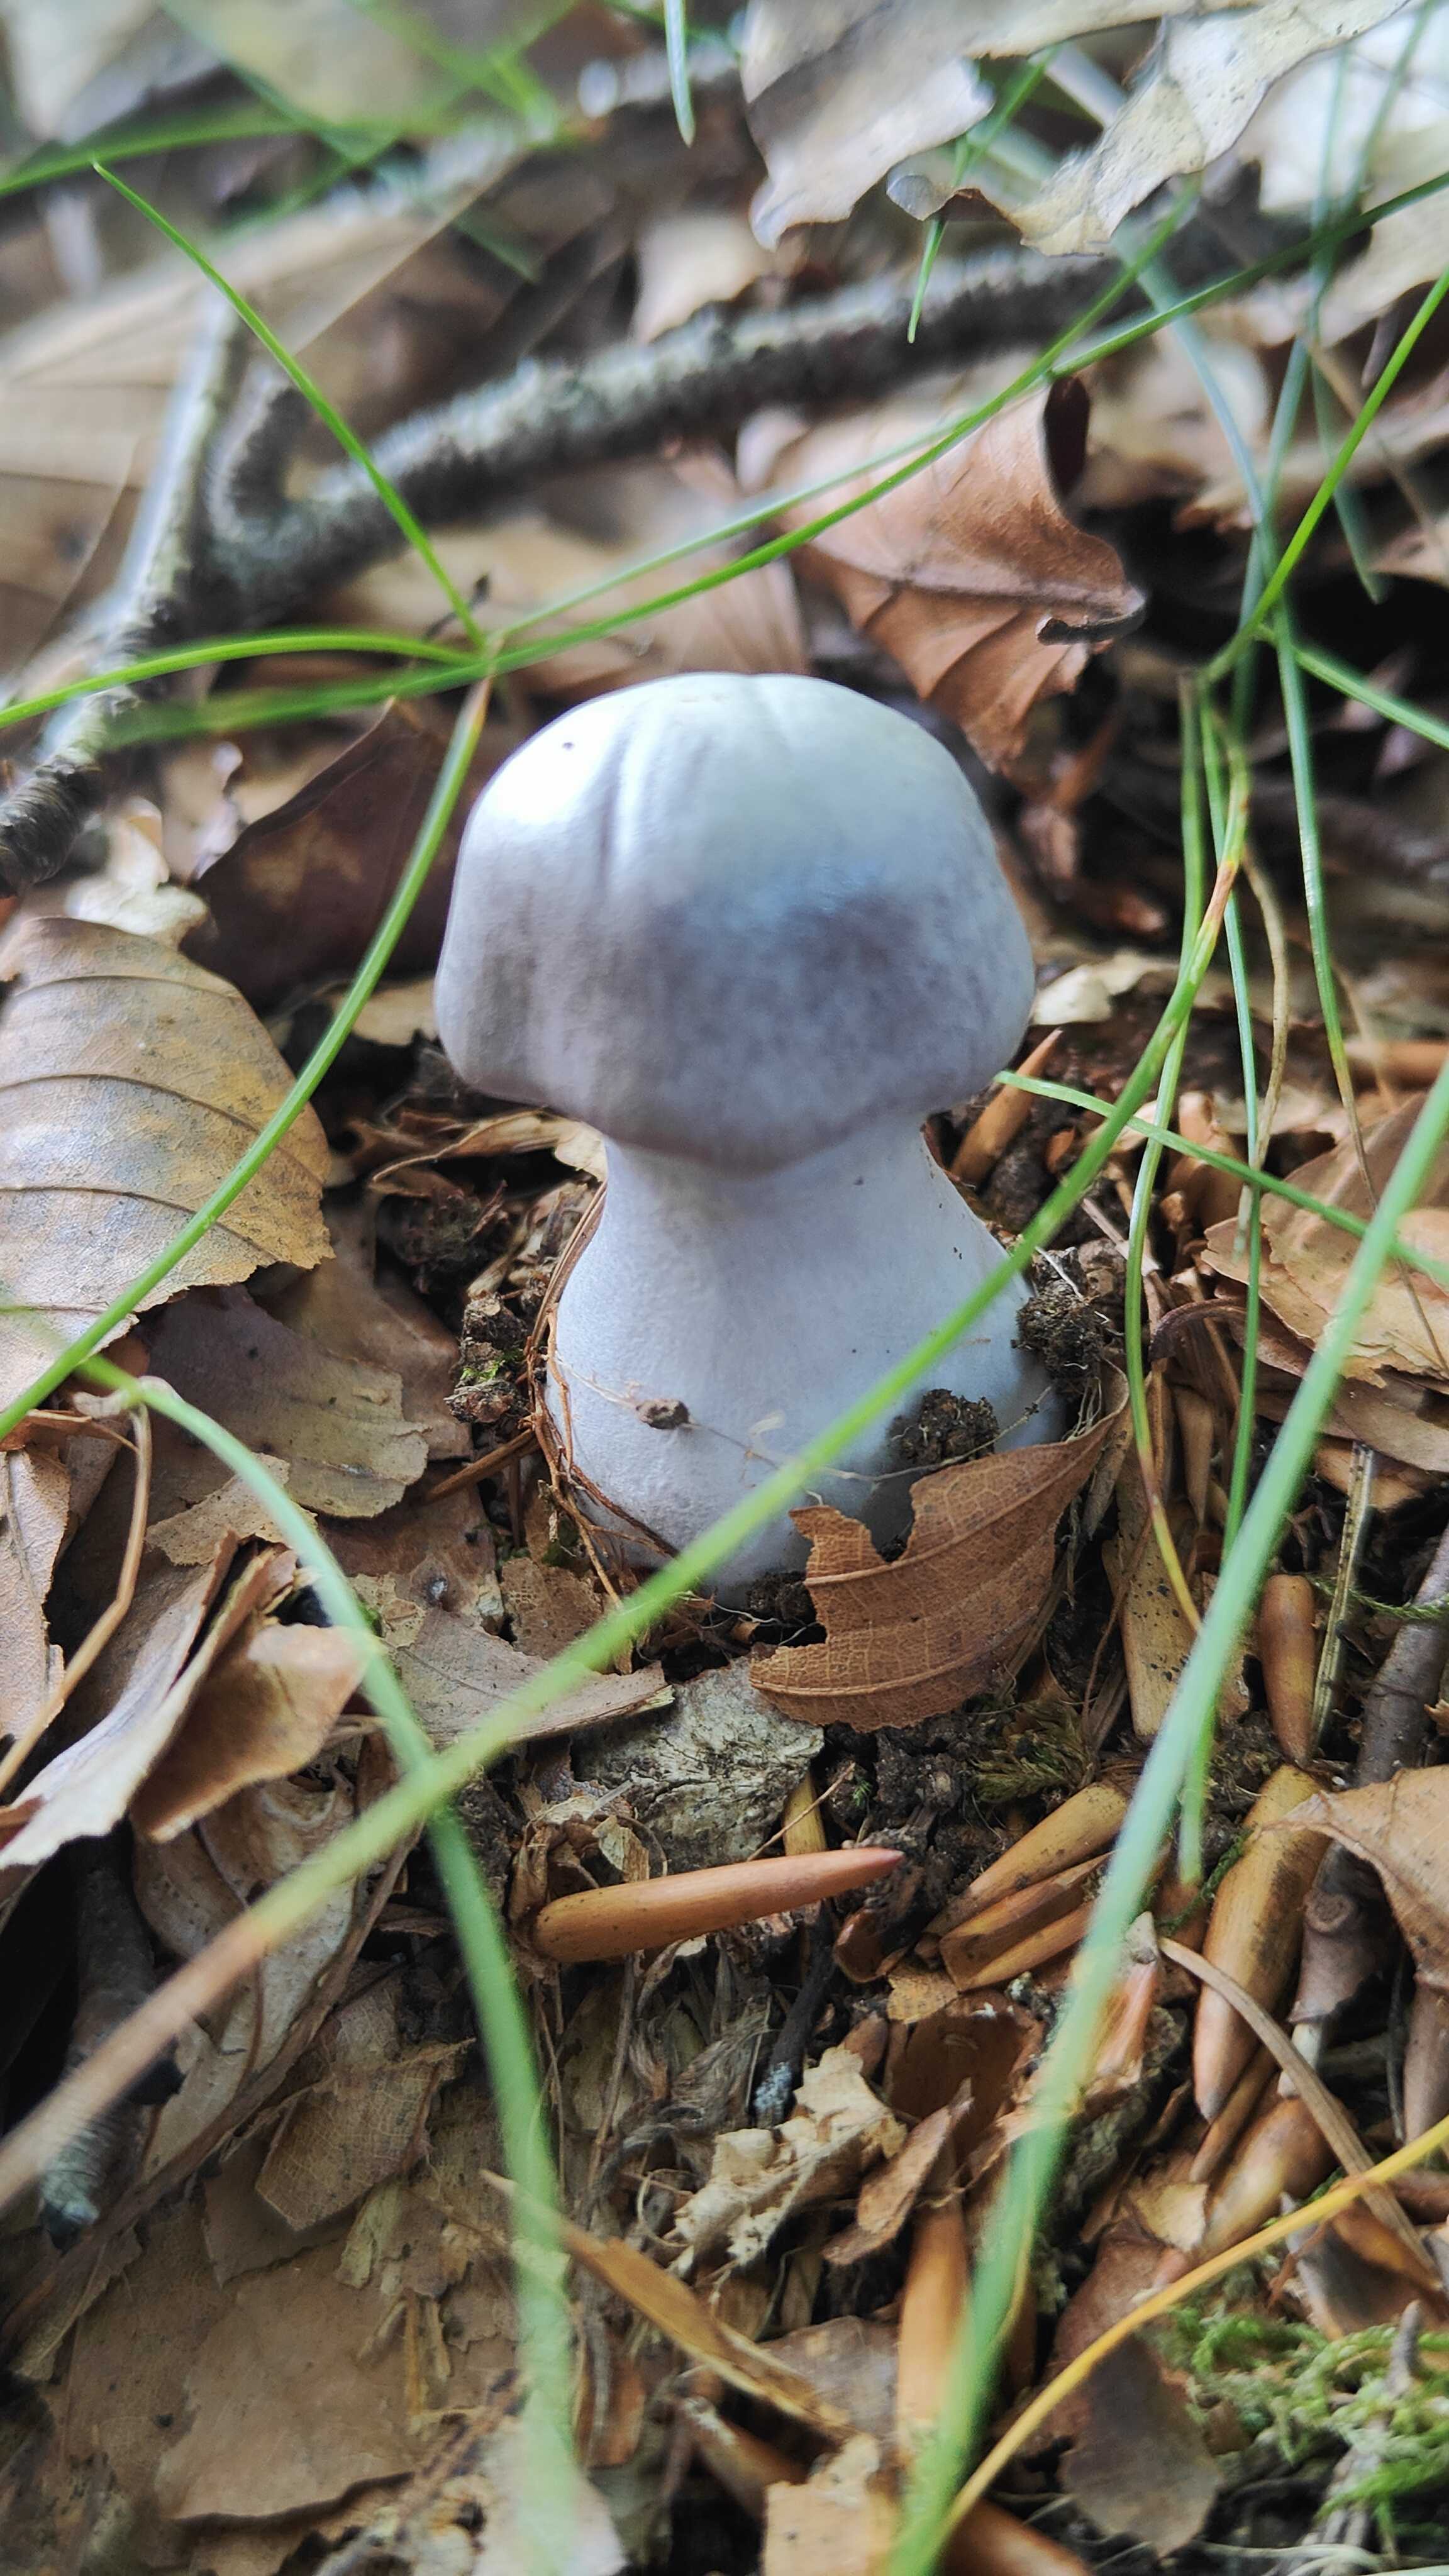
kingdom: Fungi
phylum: Basidiomycota
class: Agaricomycetes
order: Agaricales
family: Cortinariaceae
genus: Cortinarius
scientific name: Cortinarius alboviolaceus
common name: lysviolet slørhat
